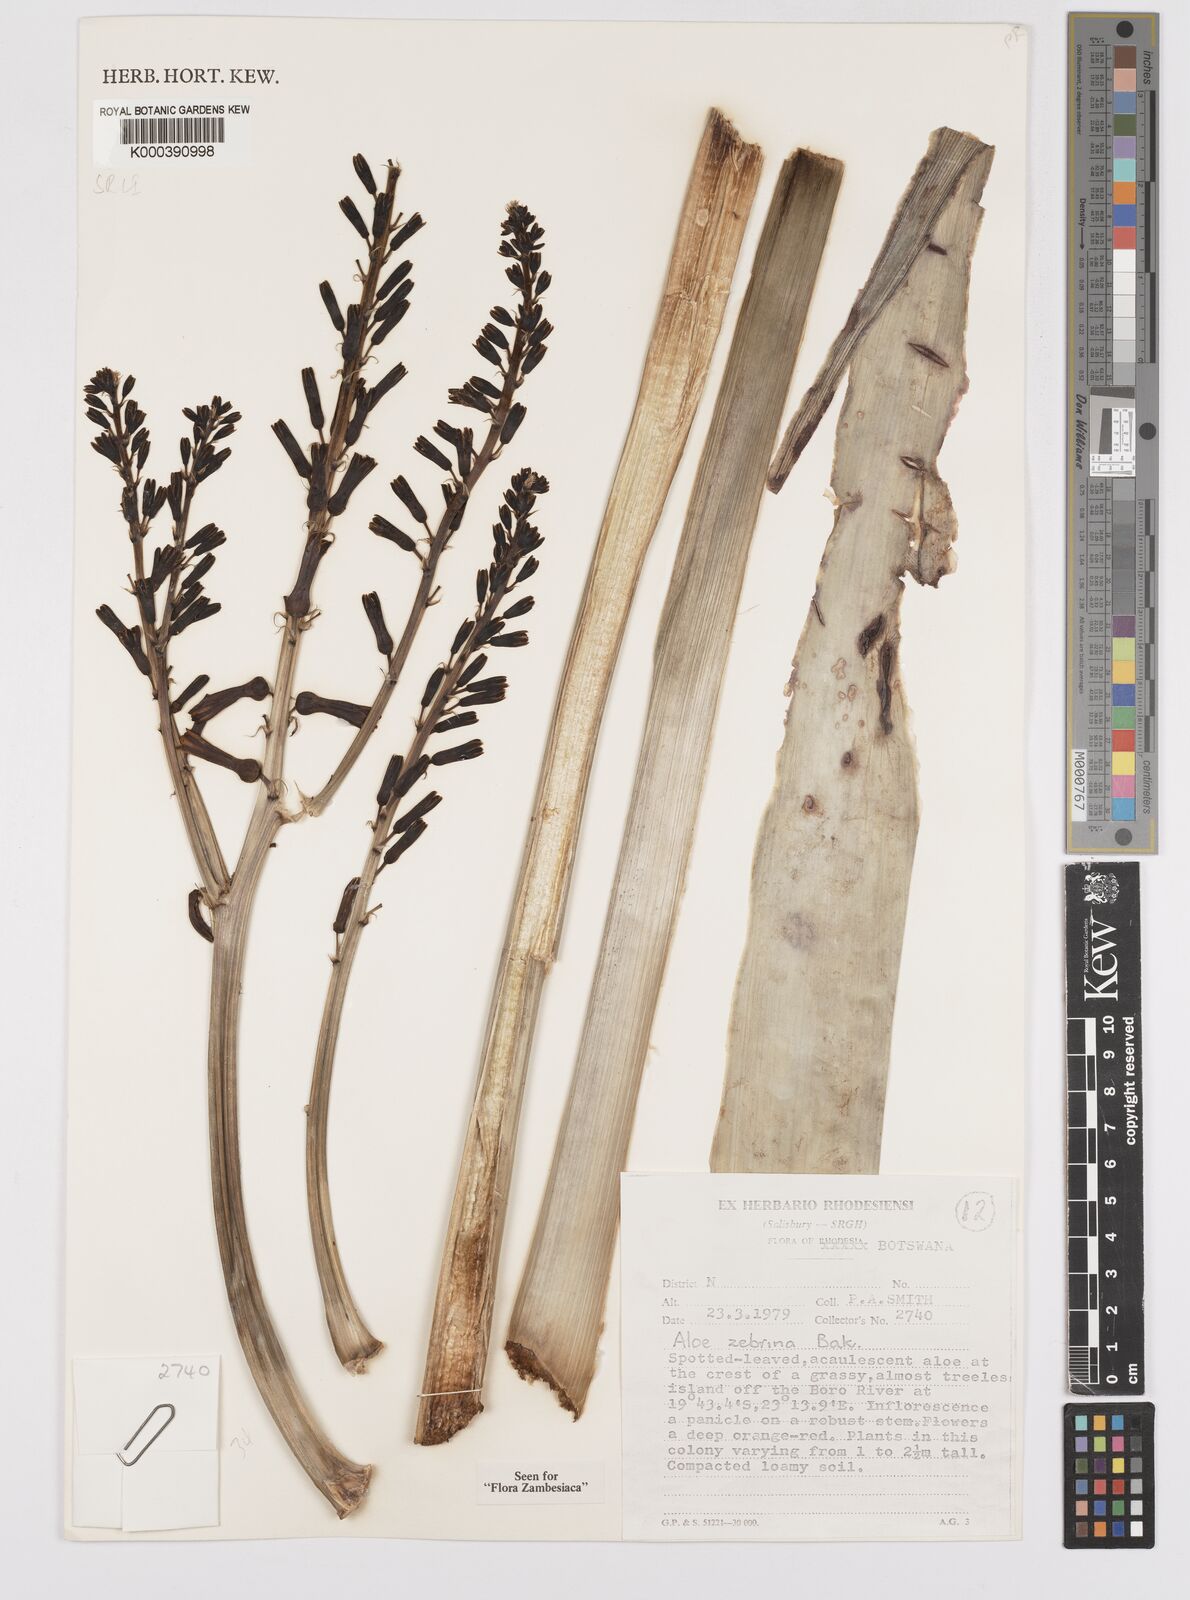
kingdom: Plantae
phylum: Tracheophyta
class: Liliopsida
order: Asparagales
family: Asphodelaceae
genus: Aloe
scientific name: Aloe zebrina
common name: Zebra-leaf aloe
